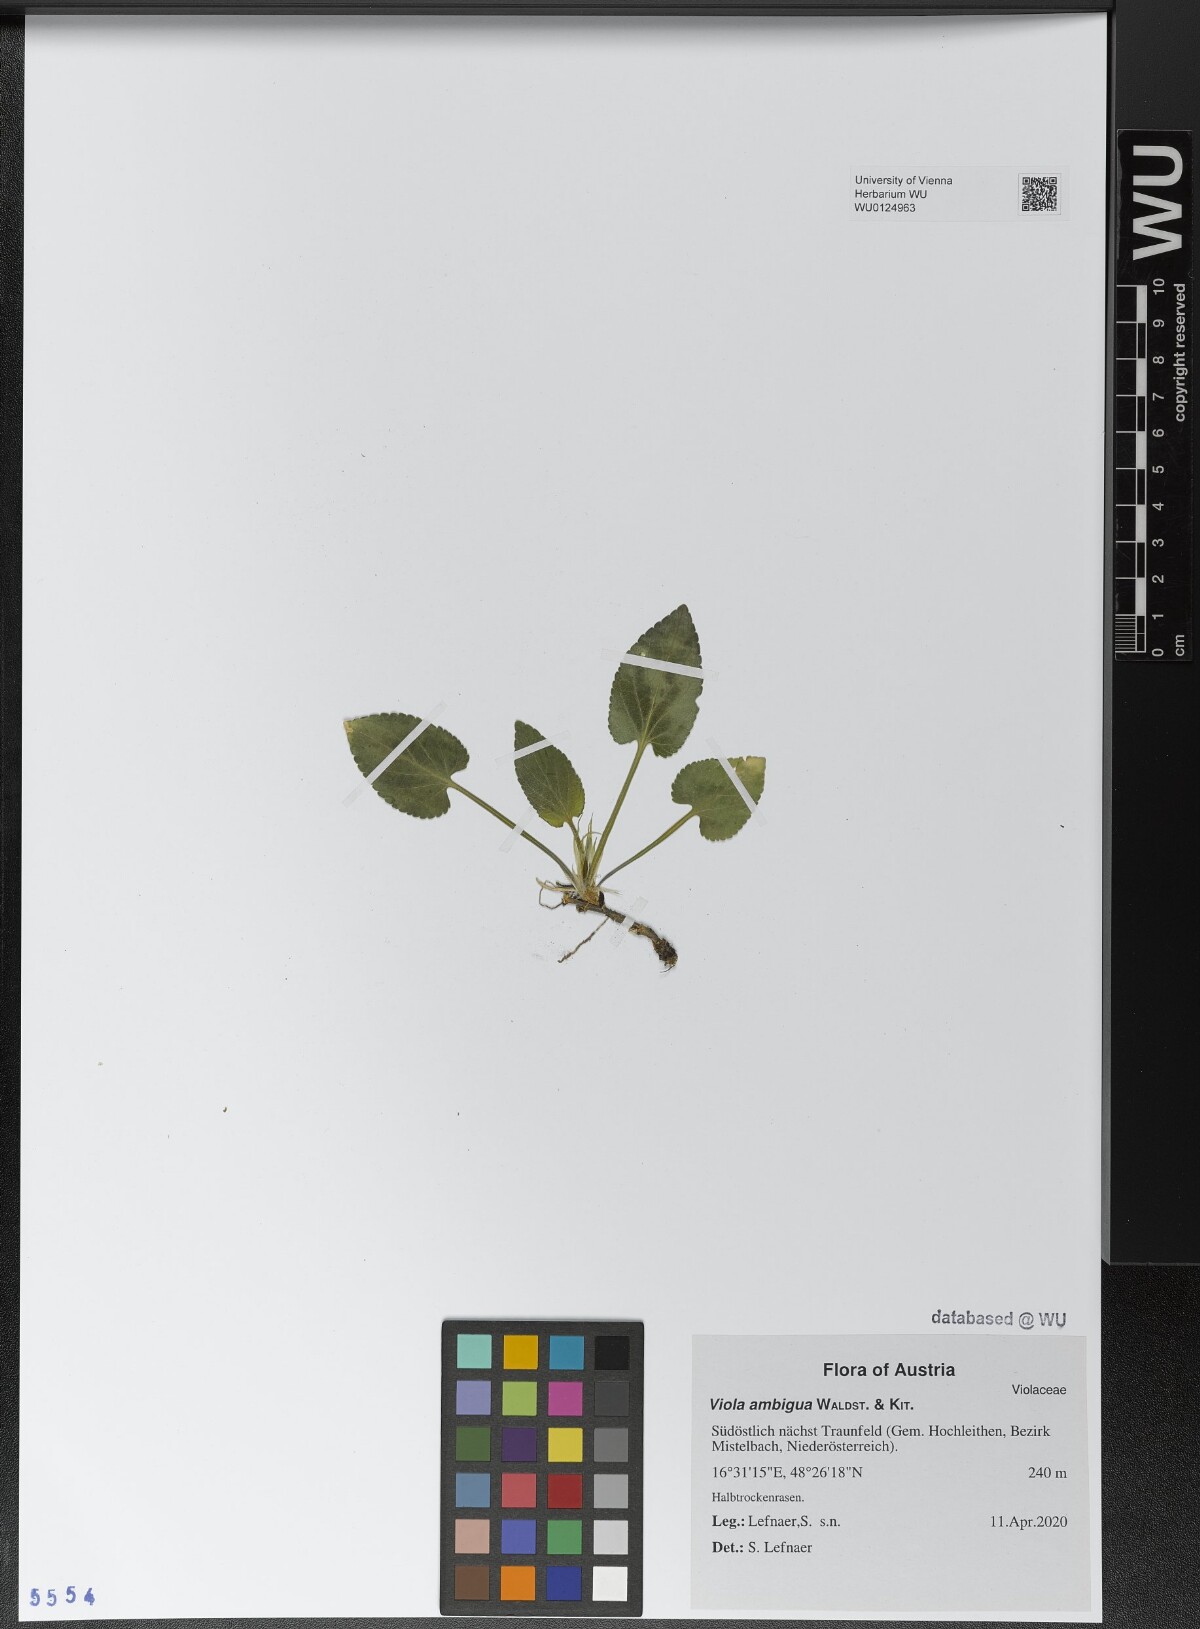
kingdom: Plantae
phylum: Tracheophyta
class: Magnoliopsida
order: Malpighiales
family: Violaceae
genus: Viola
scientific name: Viola ambigua
